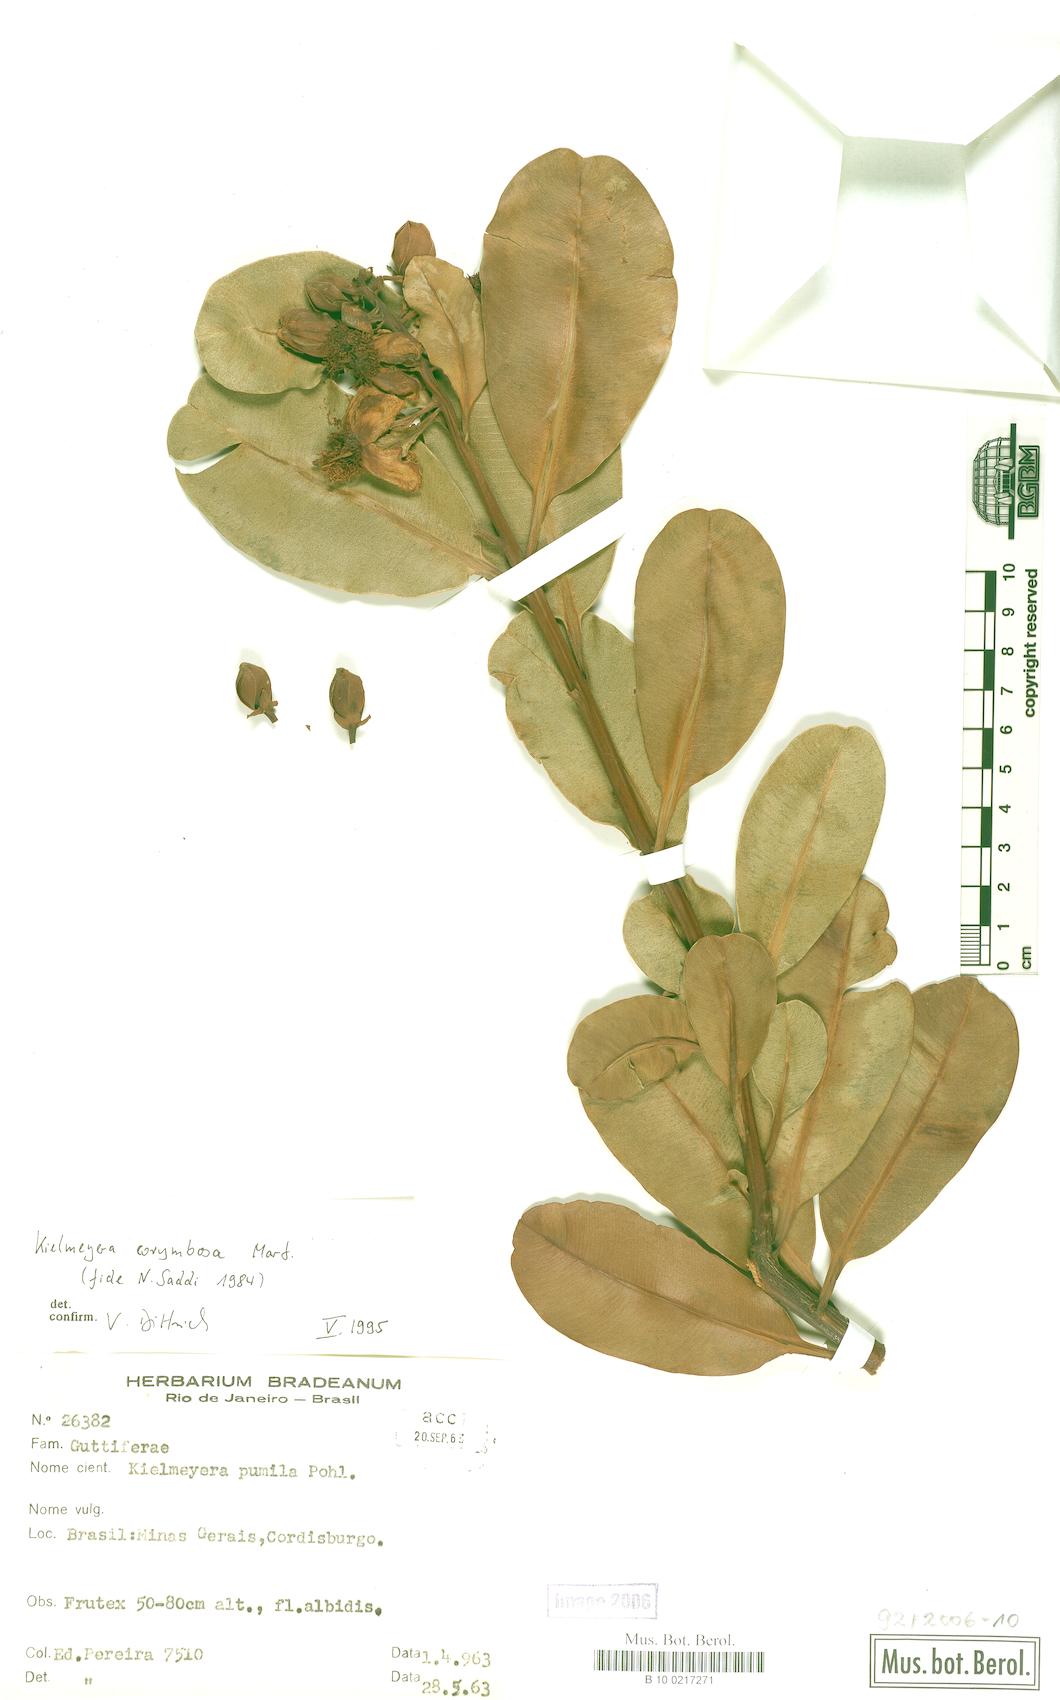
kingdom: Plantae
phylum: Tracheophyta
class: Magnoliopsida
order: Malpighiales
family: Calophyllaceae
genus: Kielmeyera
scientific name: Kielmeyera corymbosa
